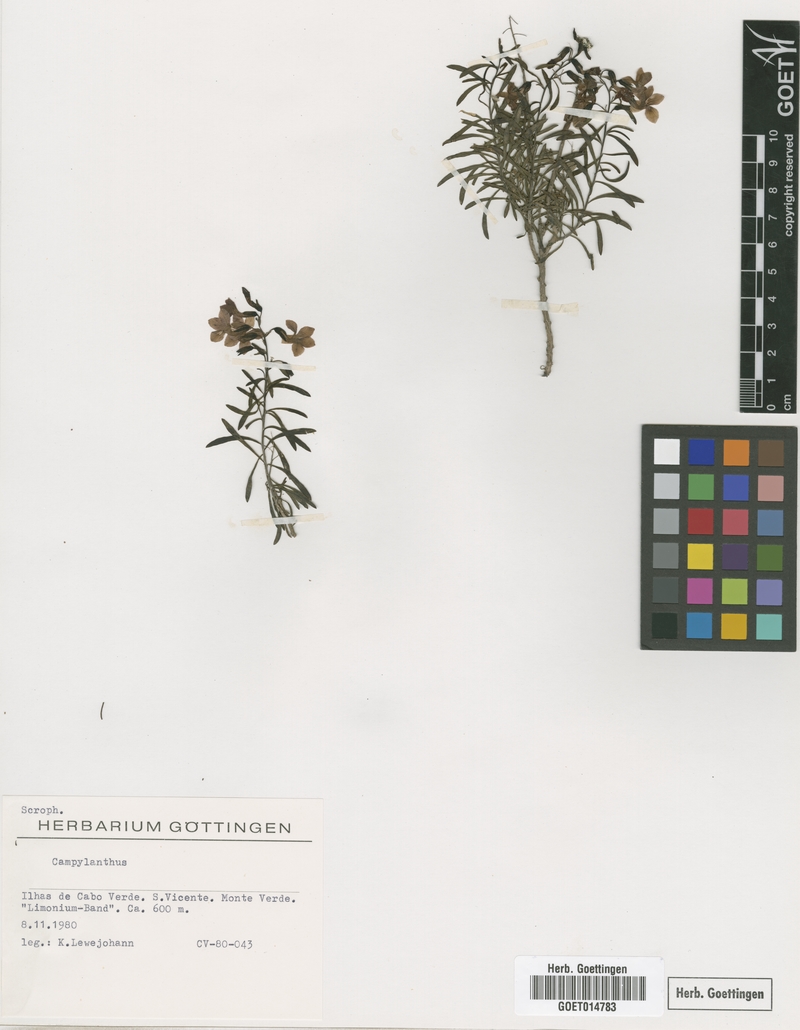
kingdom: Plantae
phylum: Tracheophyta
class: Magnoliopsida
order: Lamiales
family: Plantaginaceae
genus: Campylanthus
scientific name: Campylanthus
